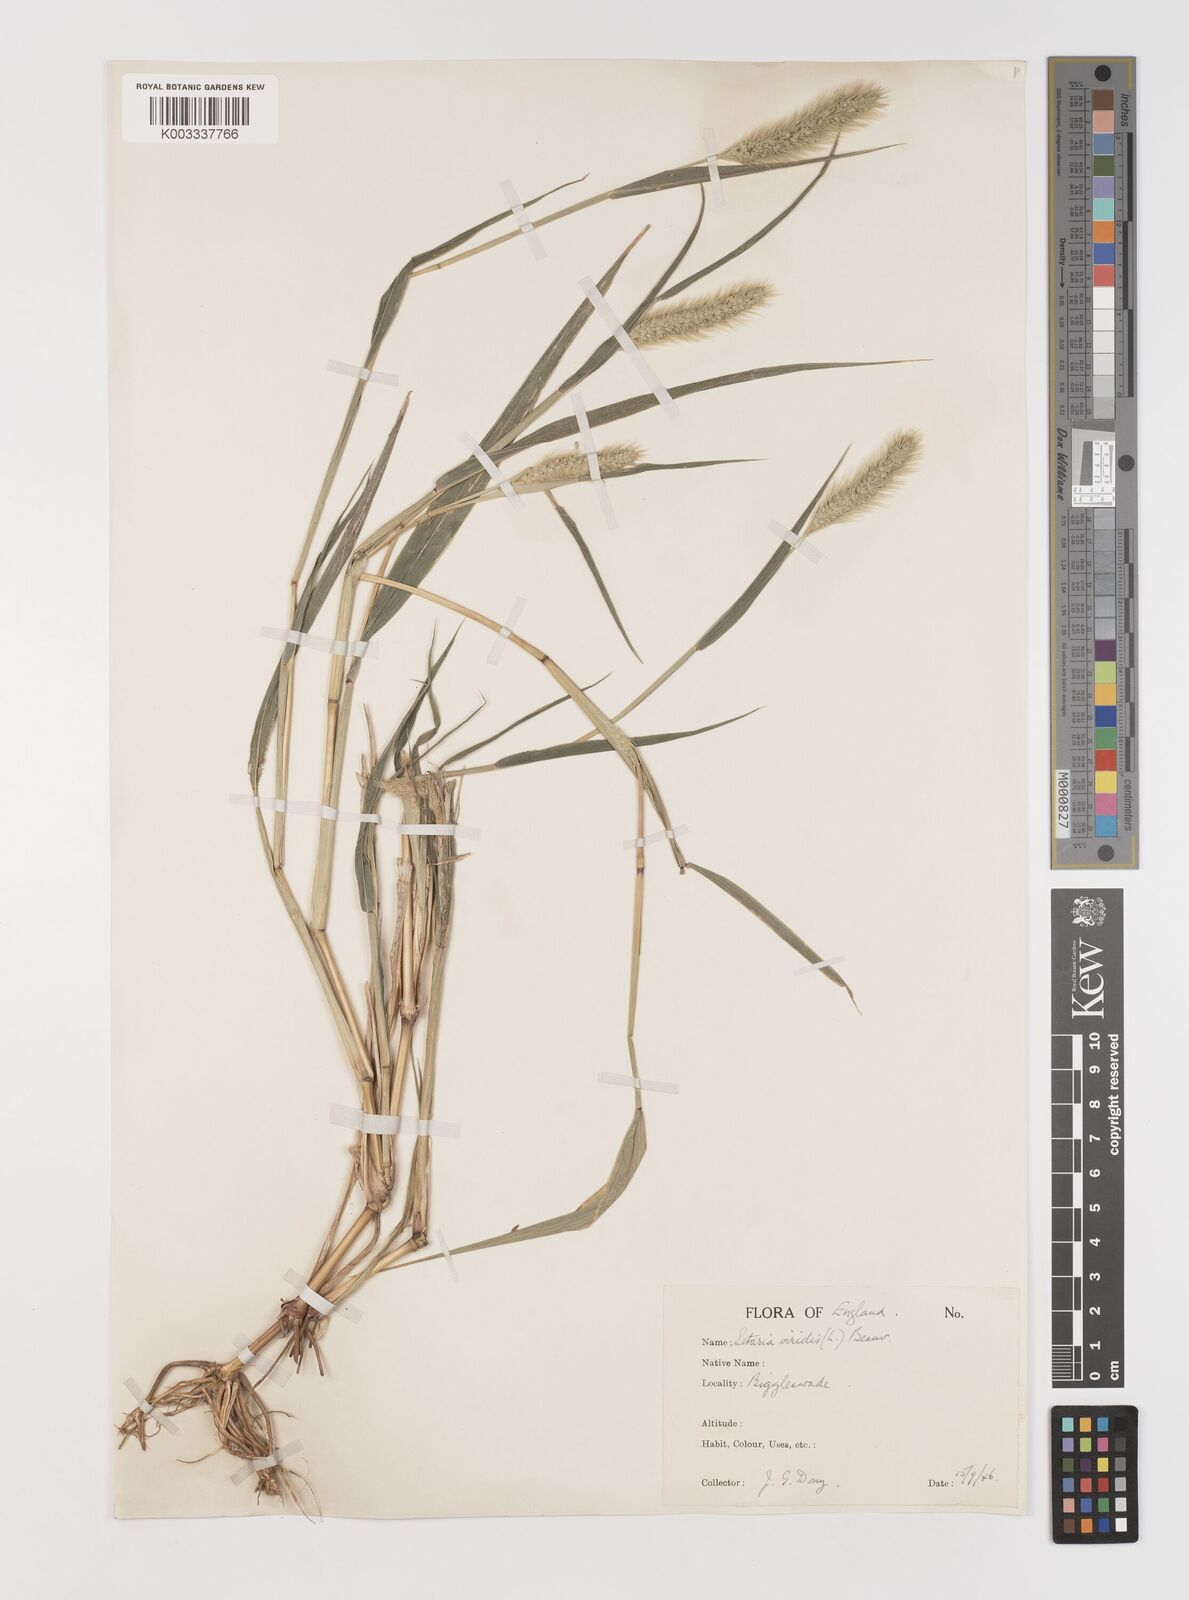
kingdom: Plantae
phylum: Tracheophyta
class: Liliopsida
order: Poales
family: Poaceae
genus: Setaria
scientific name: Setaria viridis
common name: Green bristlegrass
